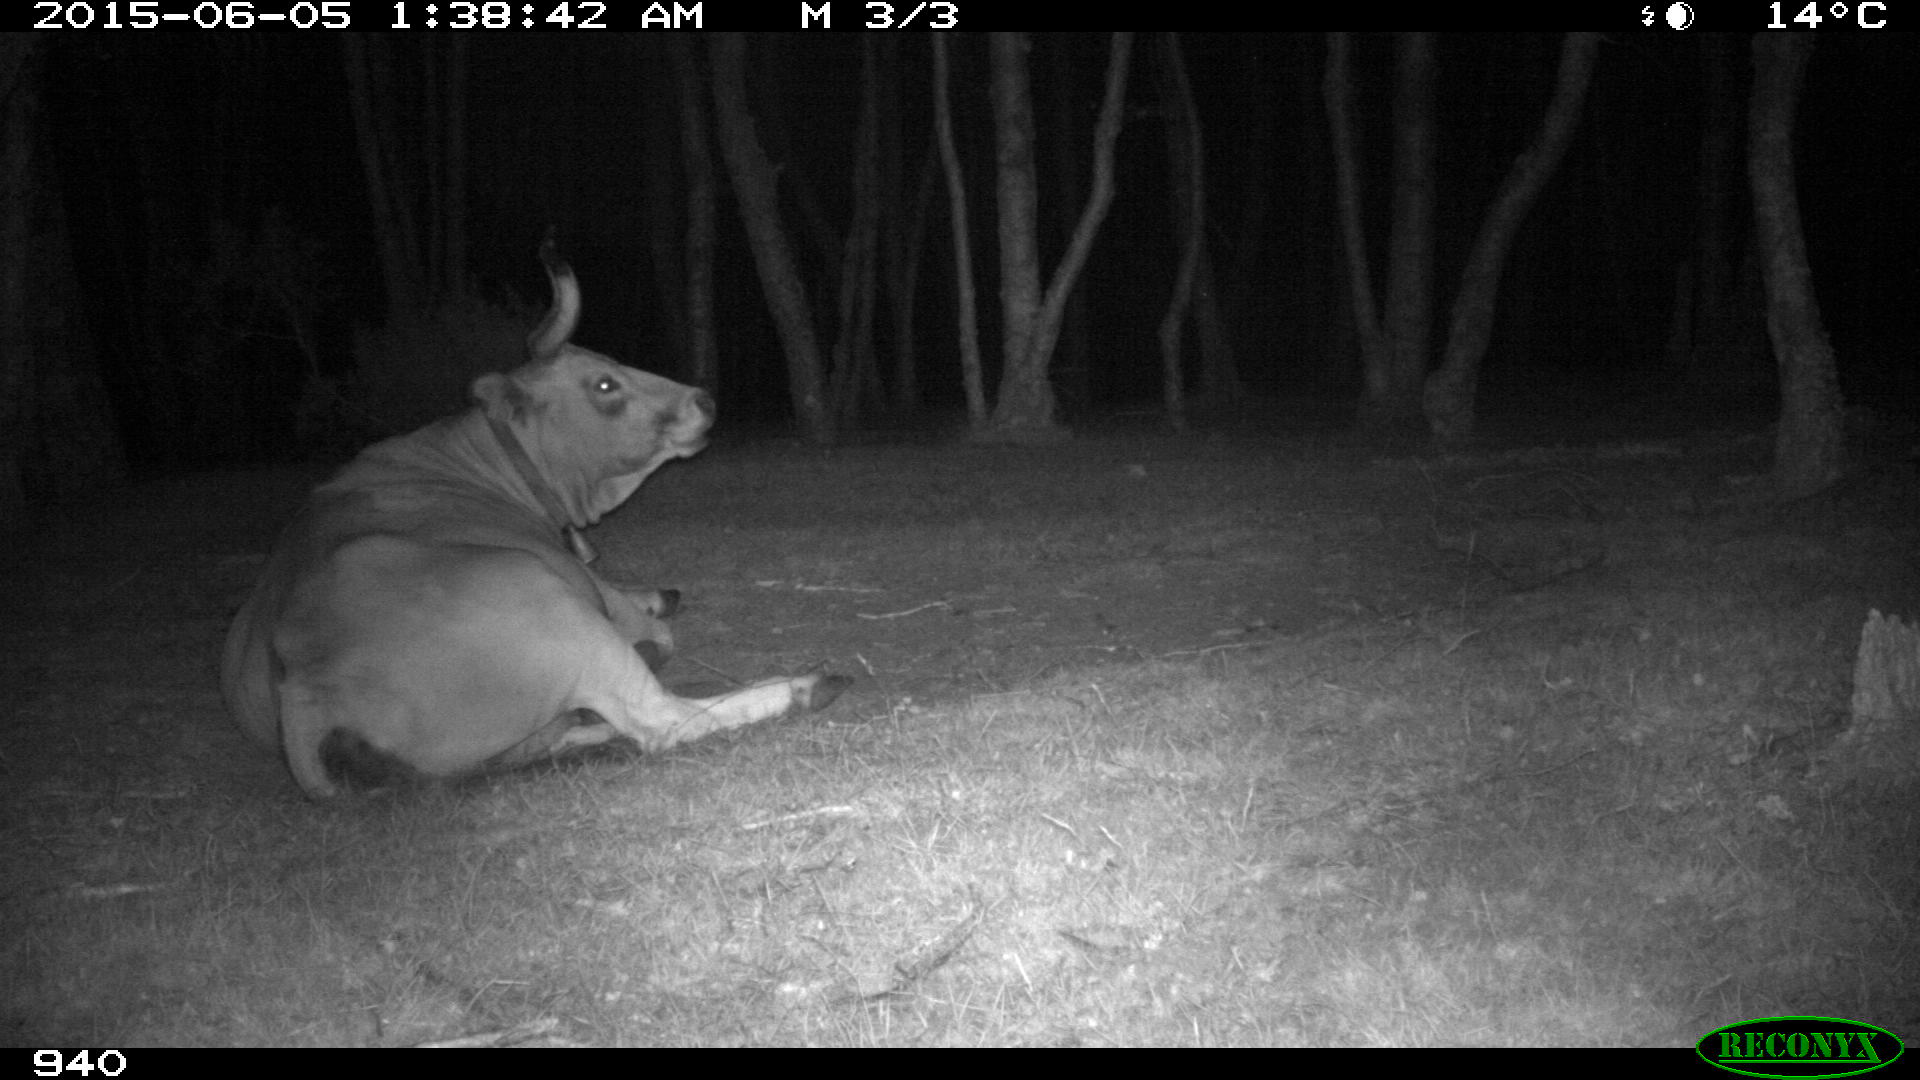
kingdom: Animalia
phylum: Chordata
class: Mammalia
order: Artiodactyla
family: Bovidae
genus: Bos
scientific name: Bos taurus
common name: Domesticated cattle
